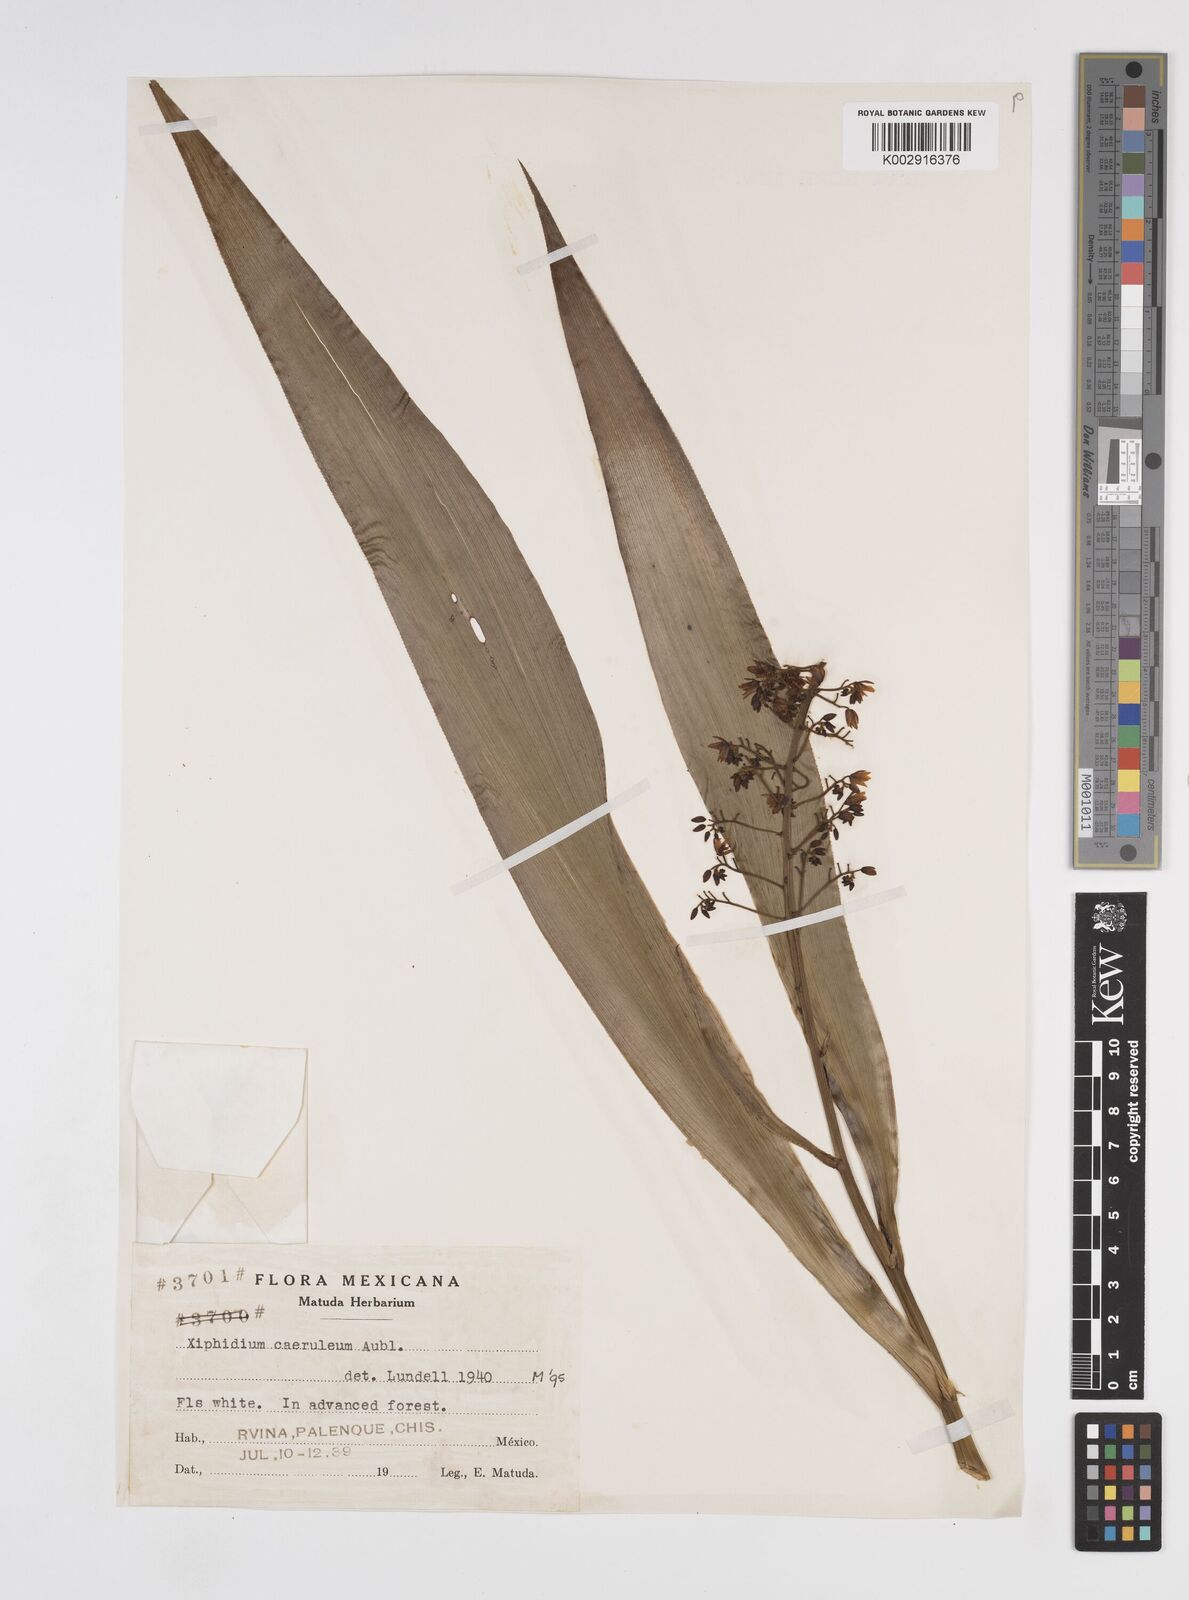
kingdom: Plantae
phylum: Tracheophyta
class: Liliopsida
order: Commelinales
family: Haemodoraceae
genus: Xiphidium
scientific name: Xiphidium caeruleum
